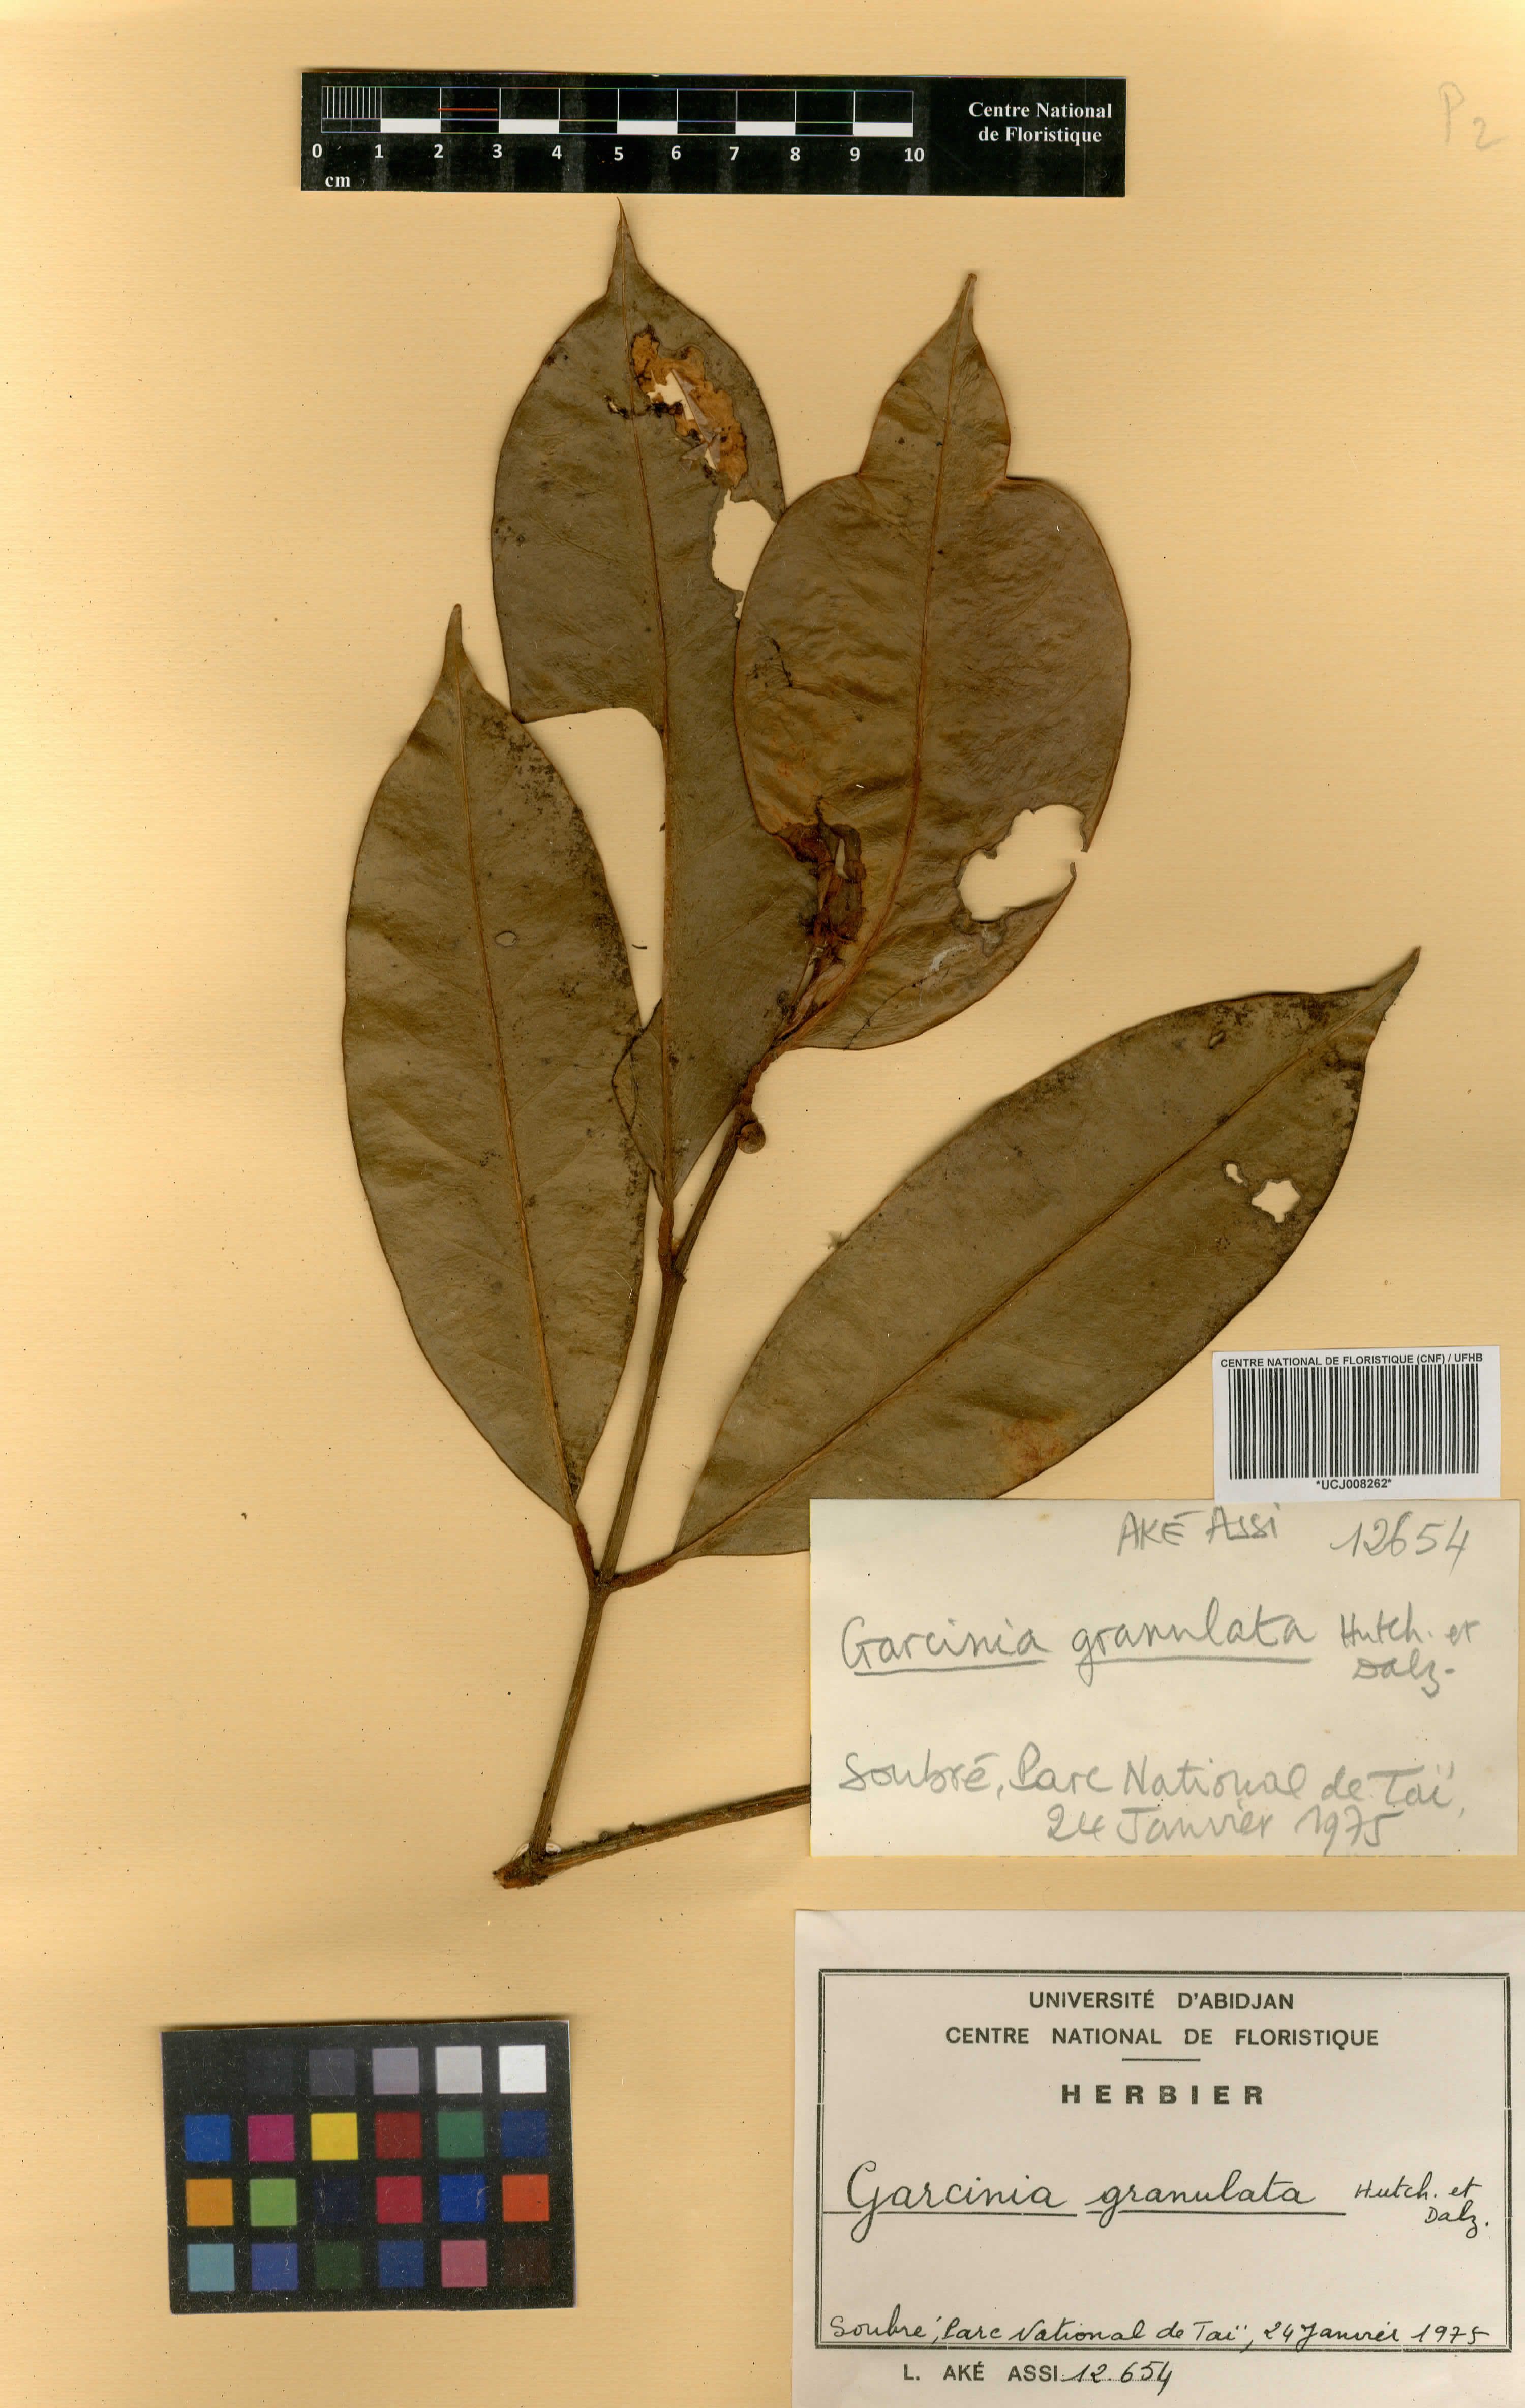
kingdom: Plantae
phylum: Tracheophyta
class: Magnoliopsida
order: Malpighiales
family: Clusiaceae
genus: Garcinia
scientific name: Garcinia quadrifaria
